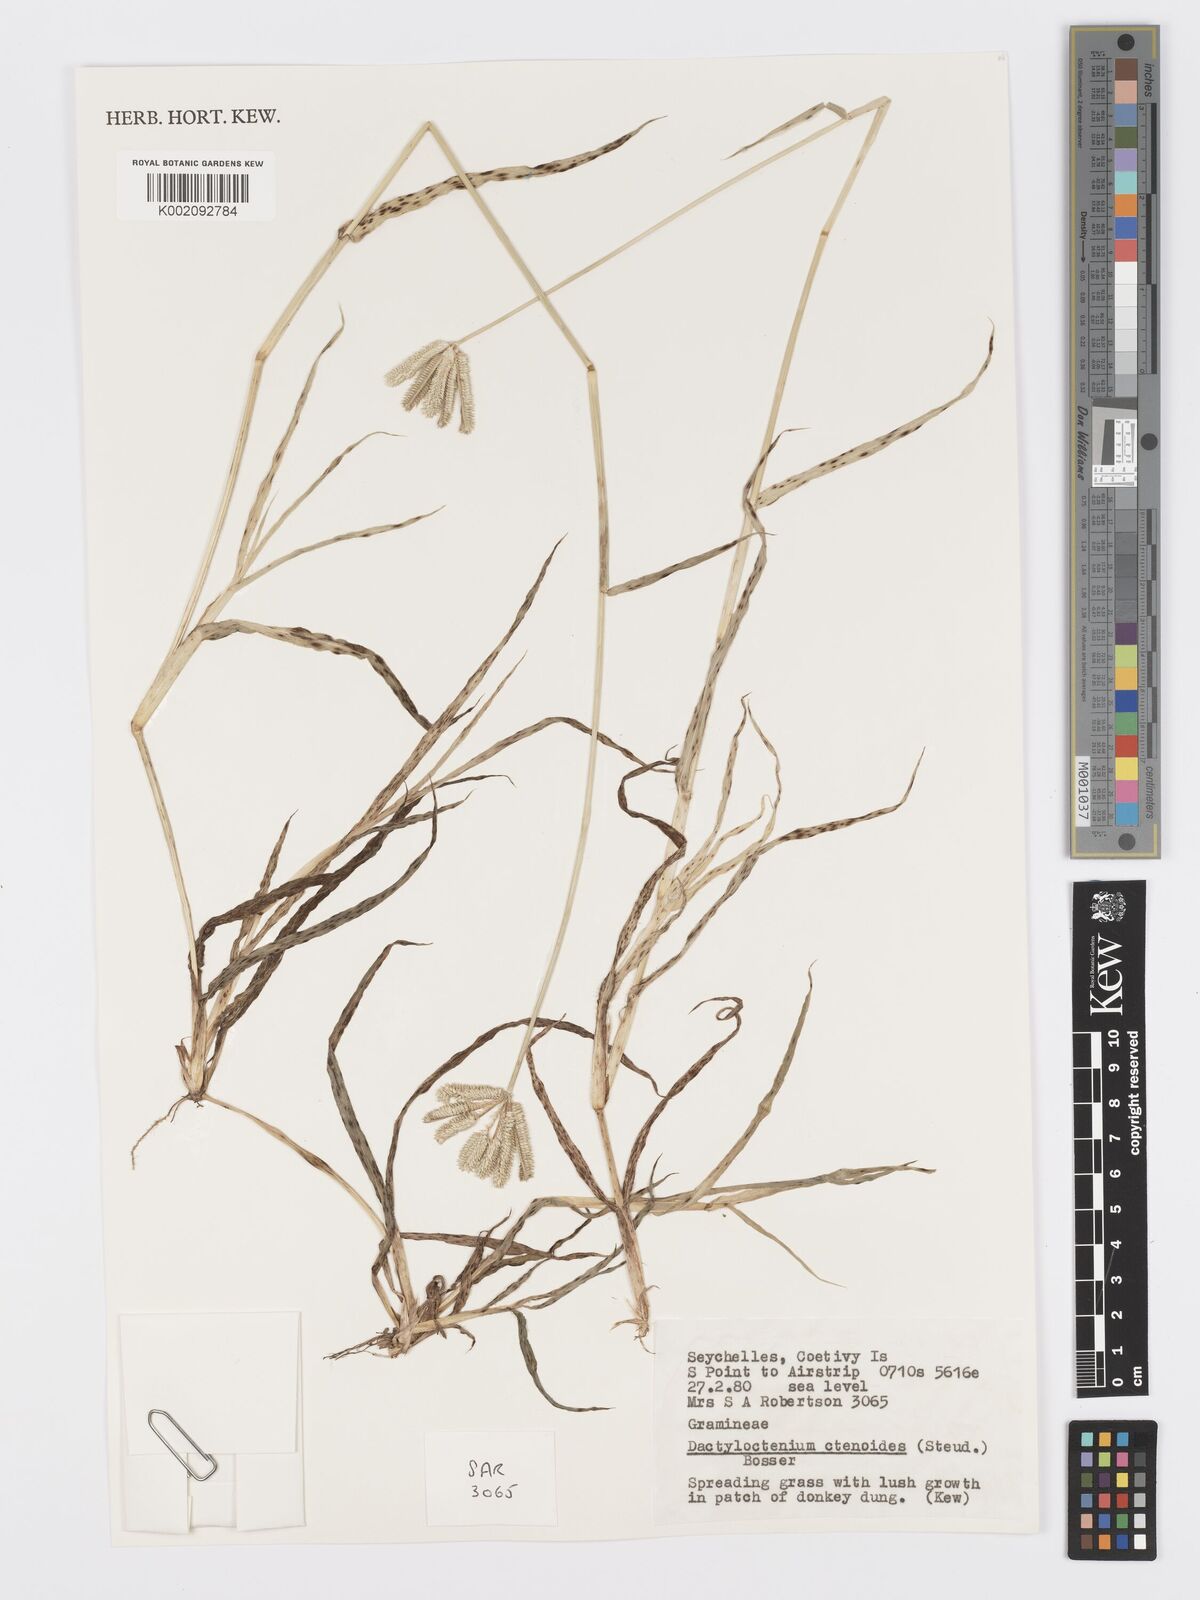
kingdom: Plantae
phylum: Tracheophyta
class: Liliopsida
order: Poales
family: Poaceae
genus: Dactyloctenium
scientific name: Dactyloctenium ctenoides
